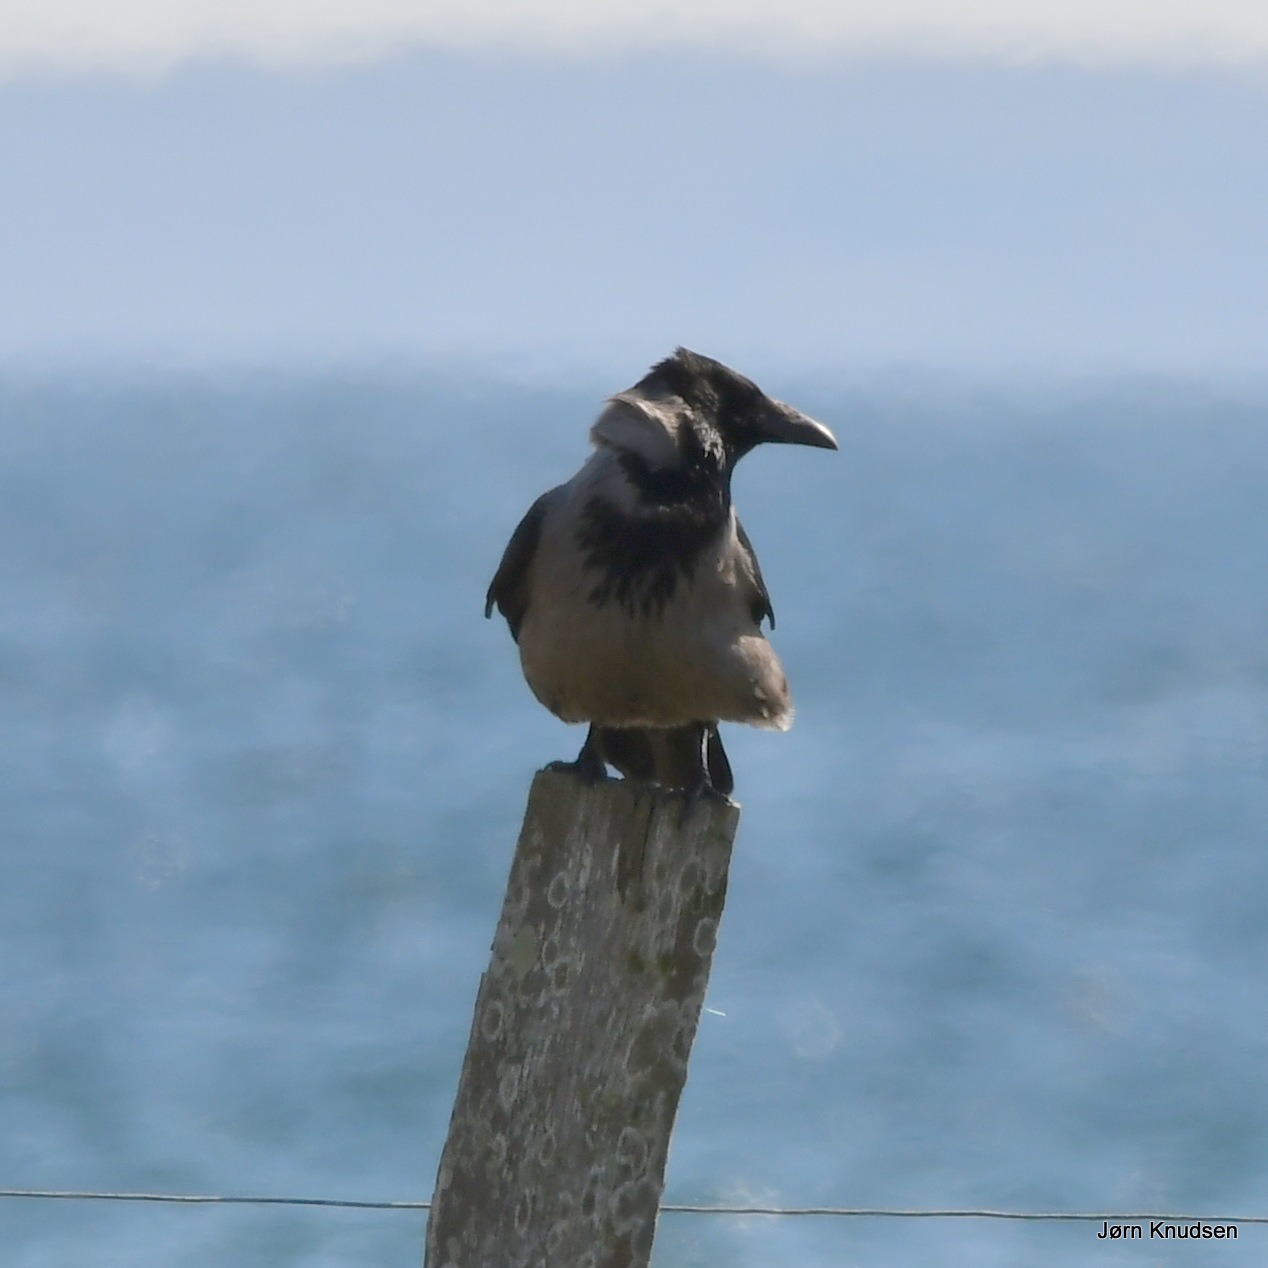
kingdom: Animalia
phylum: Chordata
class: Aves
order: Passeriformes
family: Corvidae
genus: Corvus
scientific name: Corvus cornix
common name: Gråkrage
